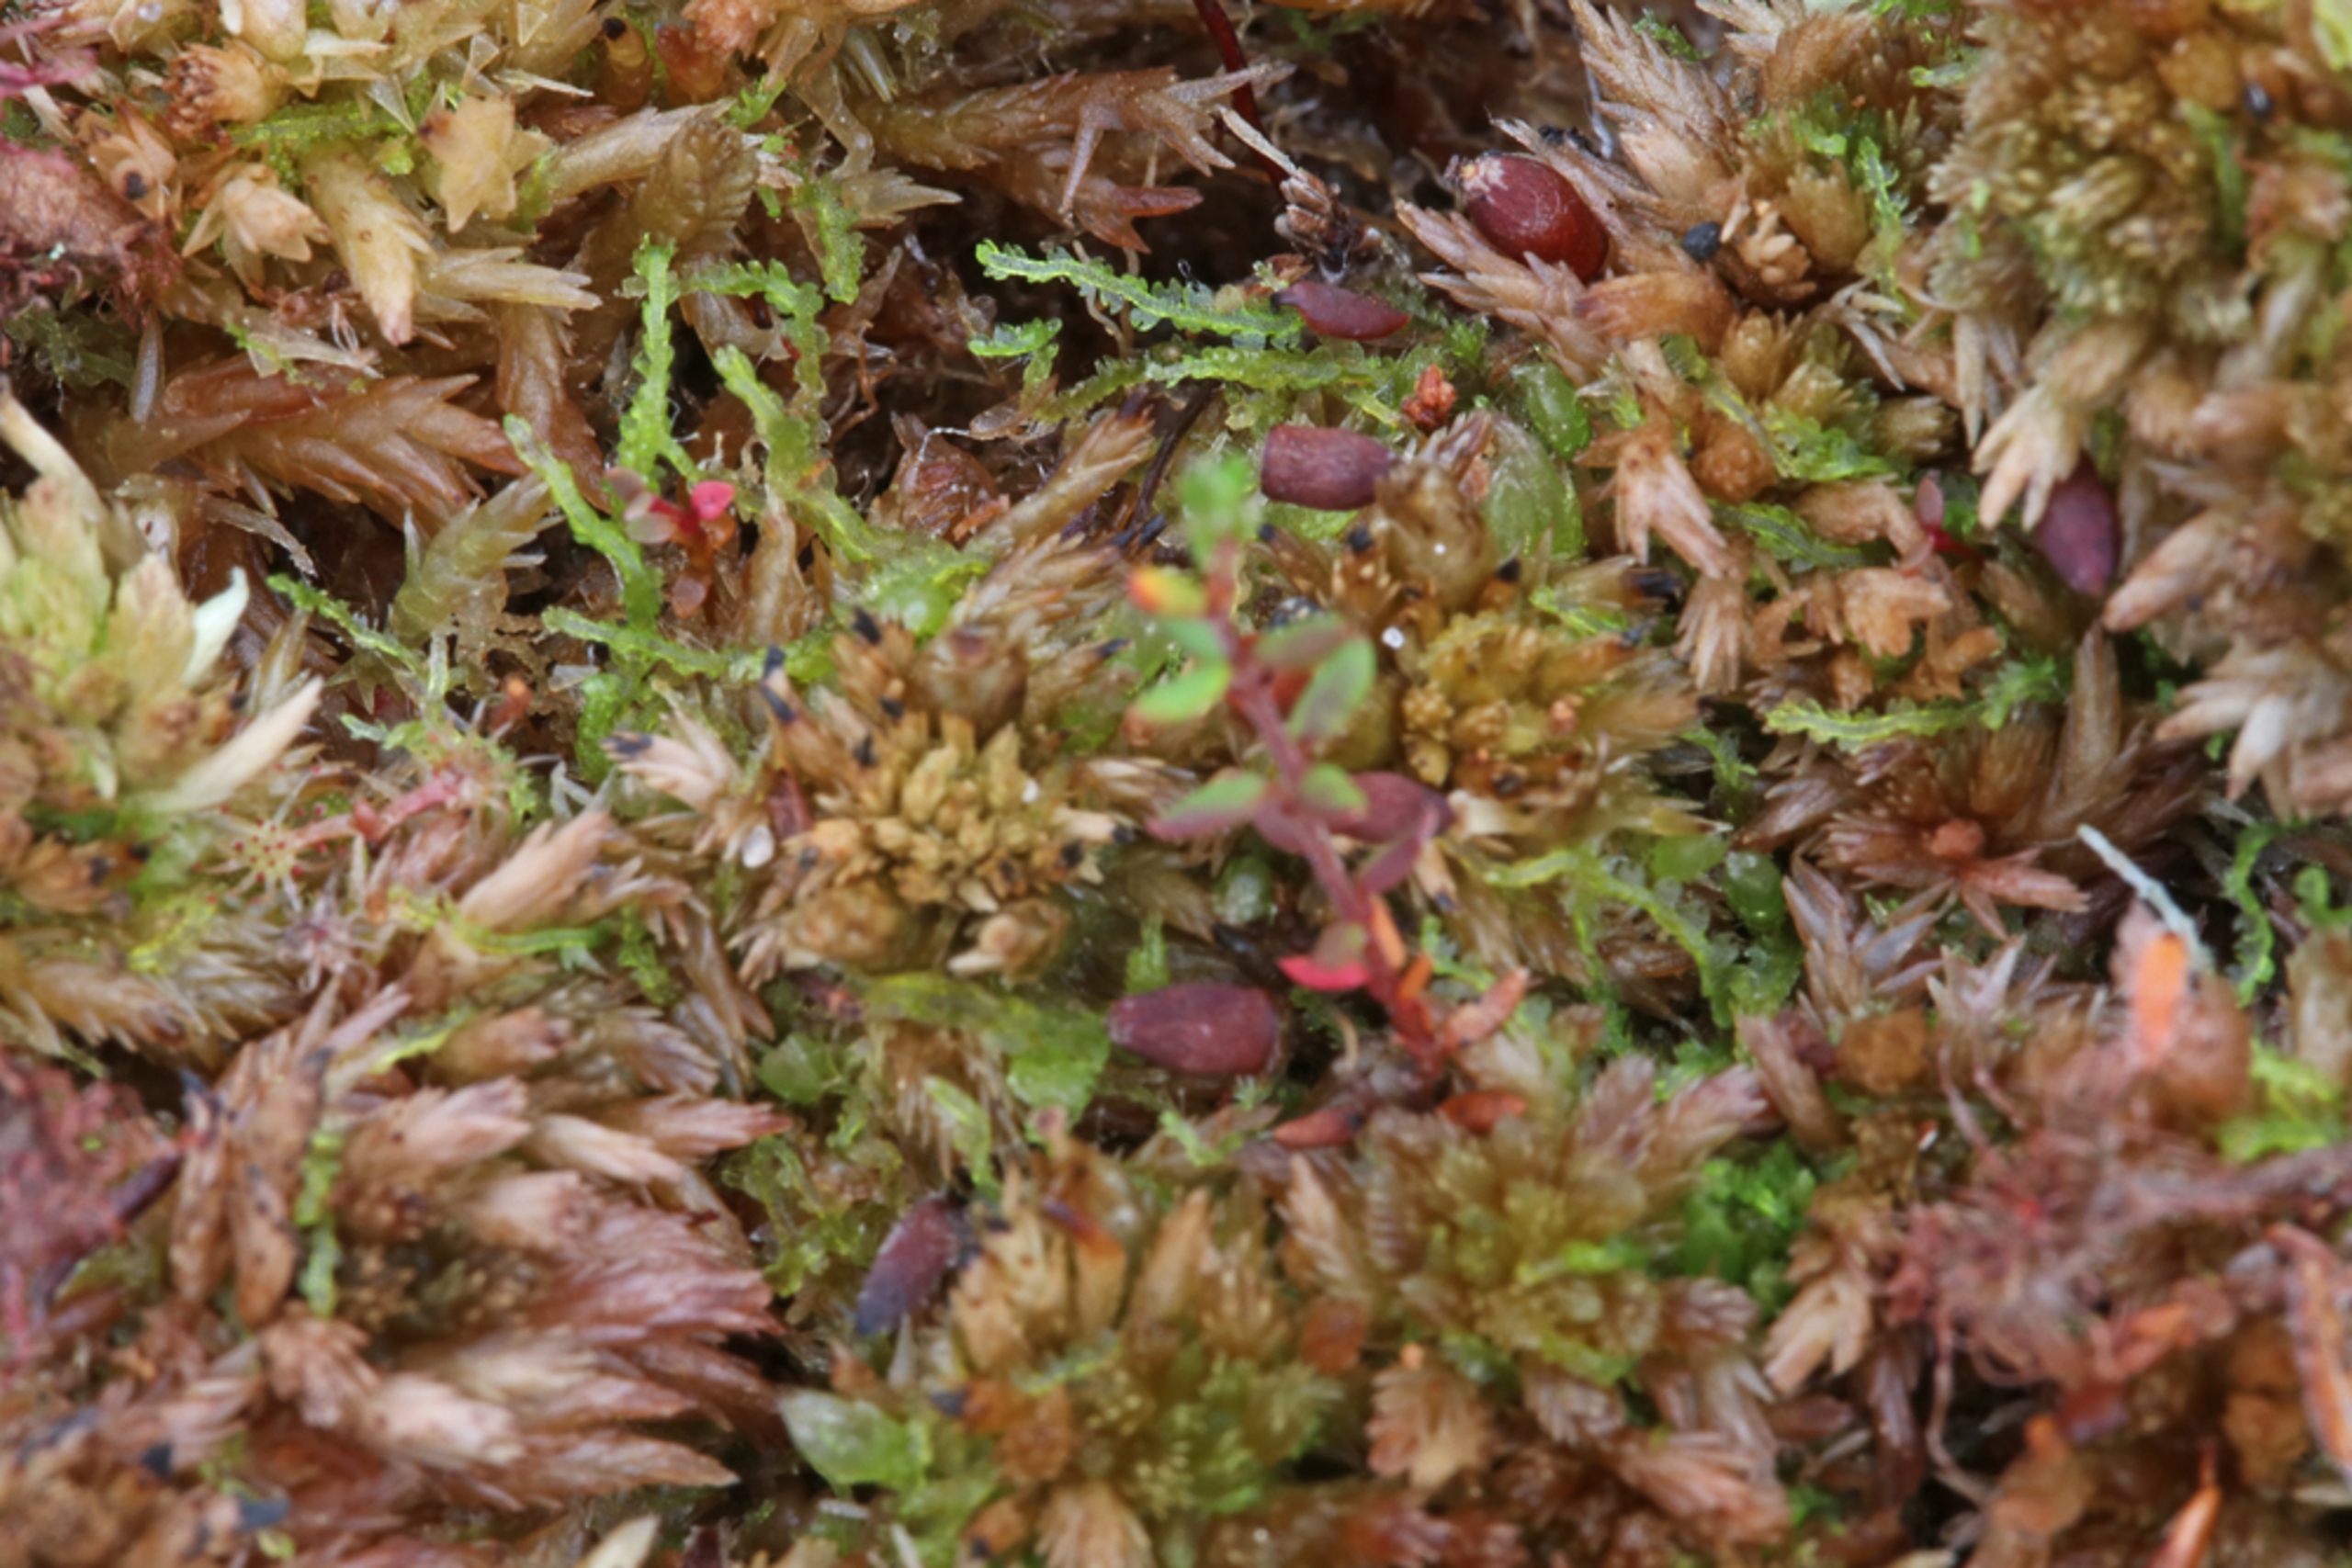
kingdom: Plantae
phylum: Marchantiophyta
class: Jungermanniopsida
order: Jungermanniales
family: Cephaloziaceae
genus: Fuscocephaloziopsis
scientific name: Fuscocephaloziopsis connivens
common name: Flad kantbæger
